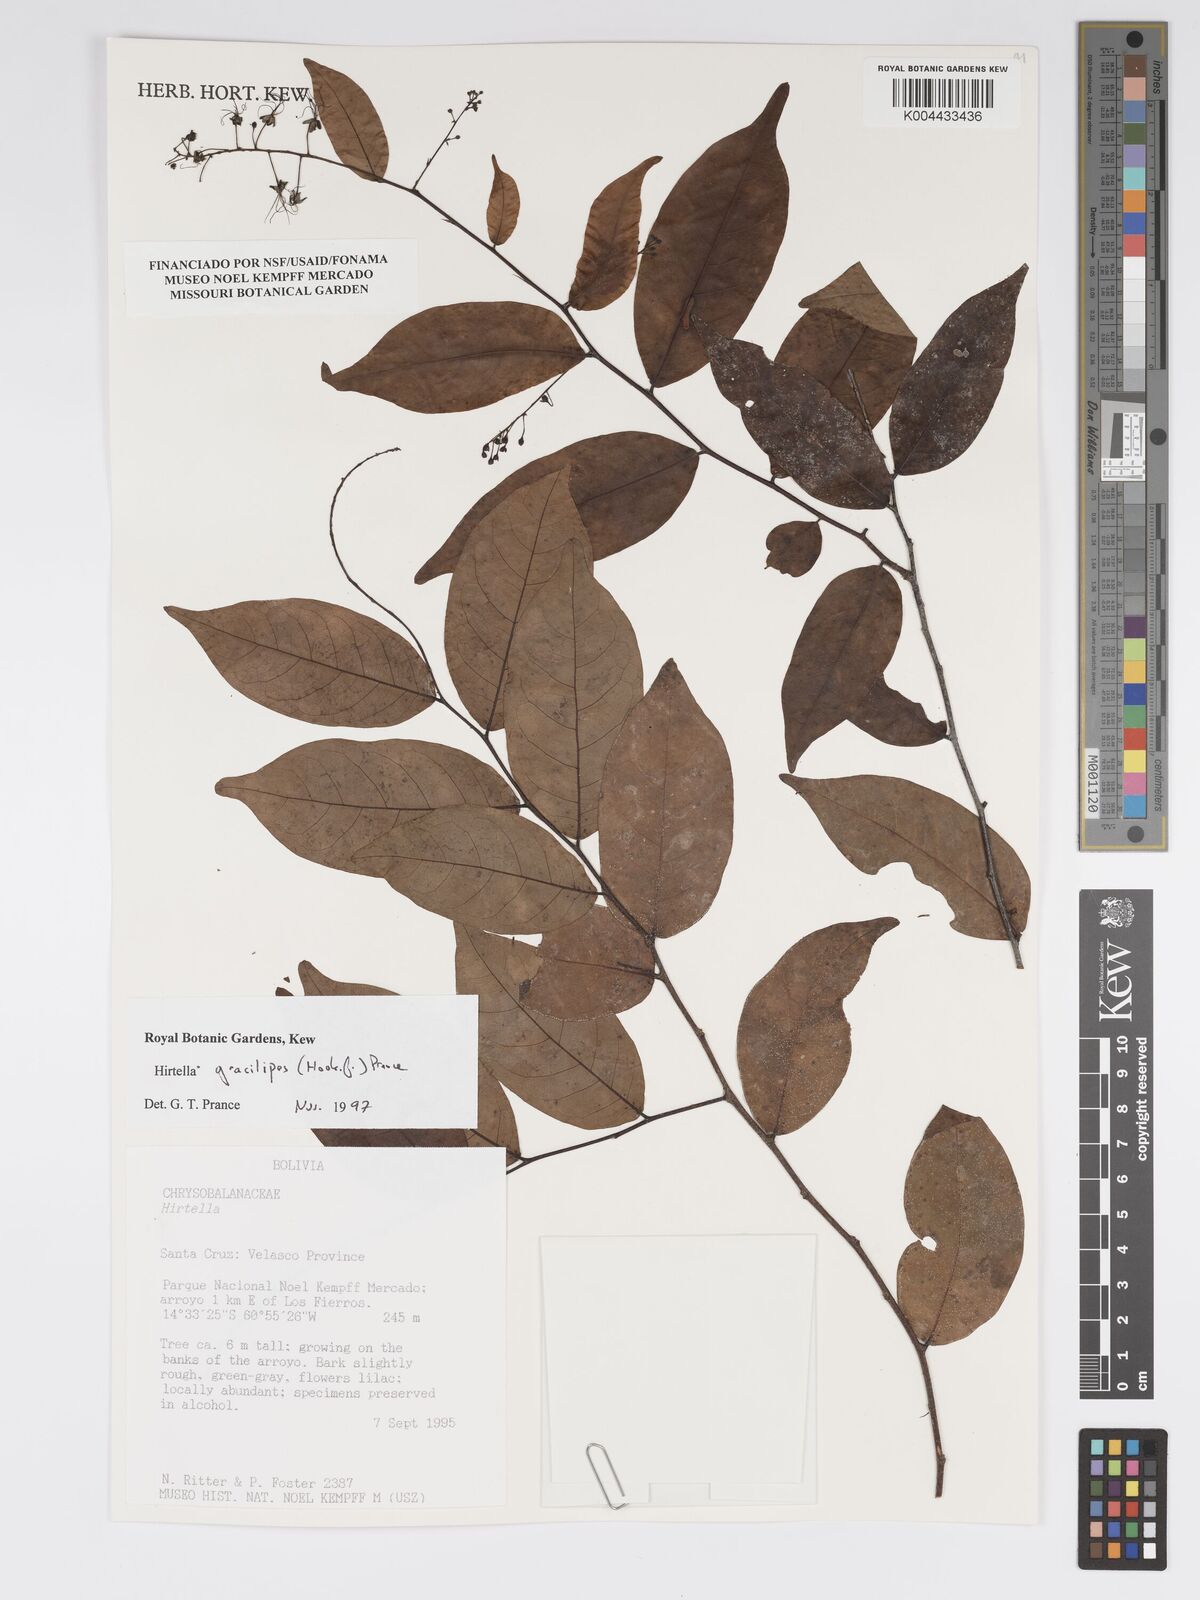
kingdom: Plantae
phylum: Tracheophyta
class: Magnoliopsida
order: Malpighiales
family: Chrysobalanaceae
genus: Hirtella
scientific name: Hirtella gracilipes
